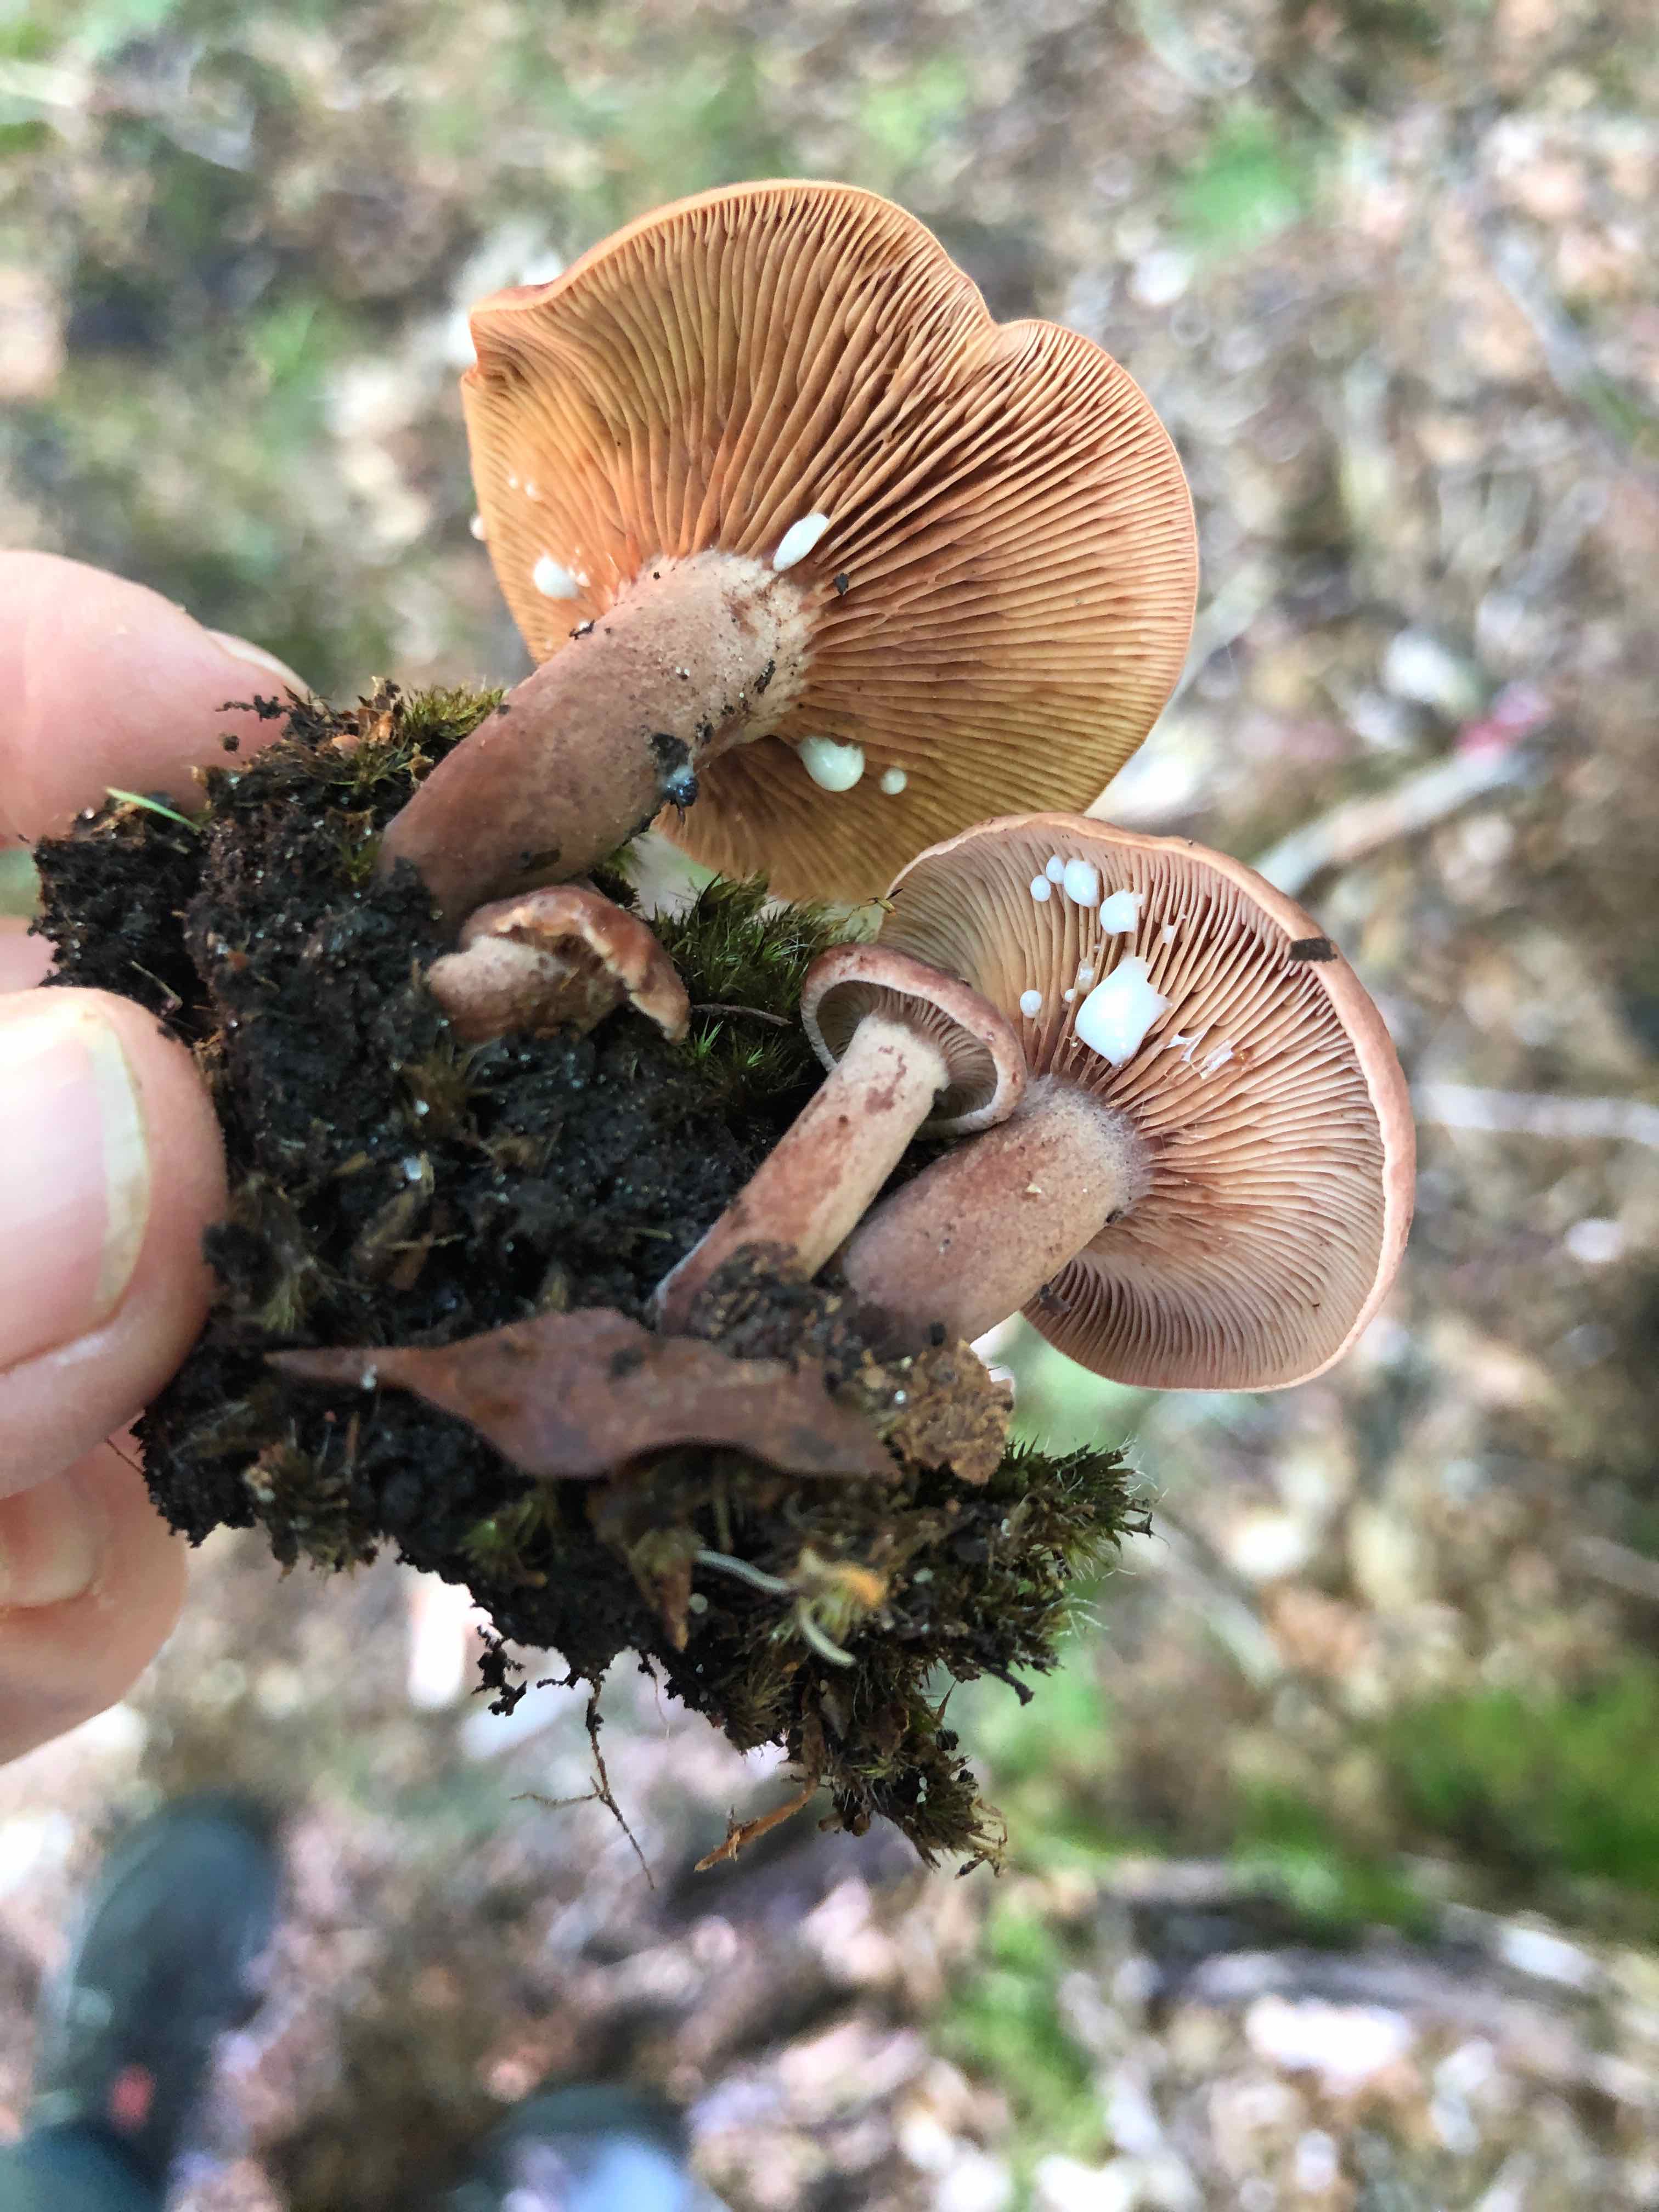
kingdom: Fungi
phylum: Basidiomycota
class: Agaricomycetes
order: Russulales
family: Russulaceae
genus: Lactarius
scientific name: Lactarius camphoratus
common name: kamfer-mælkehat
